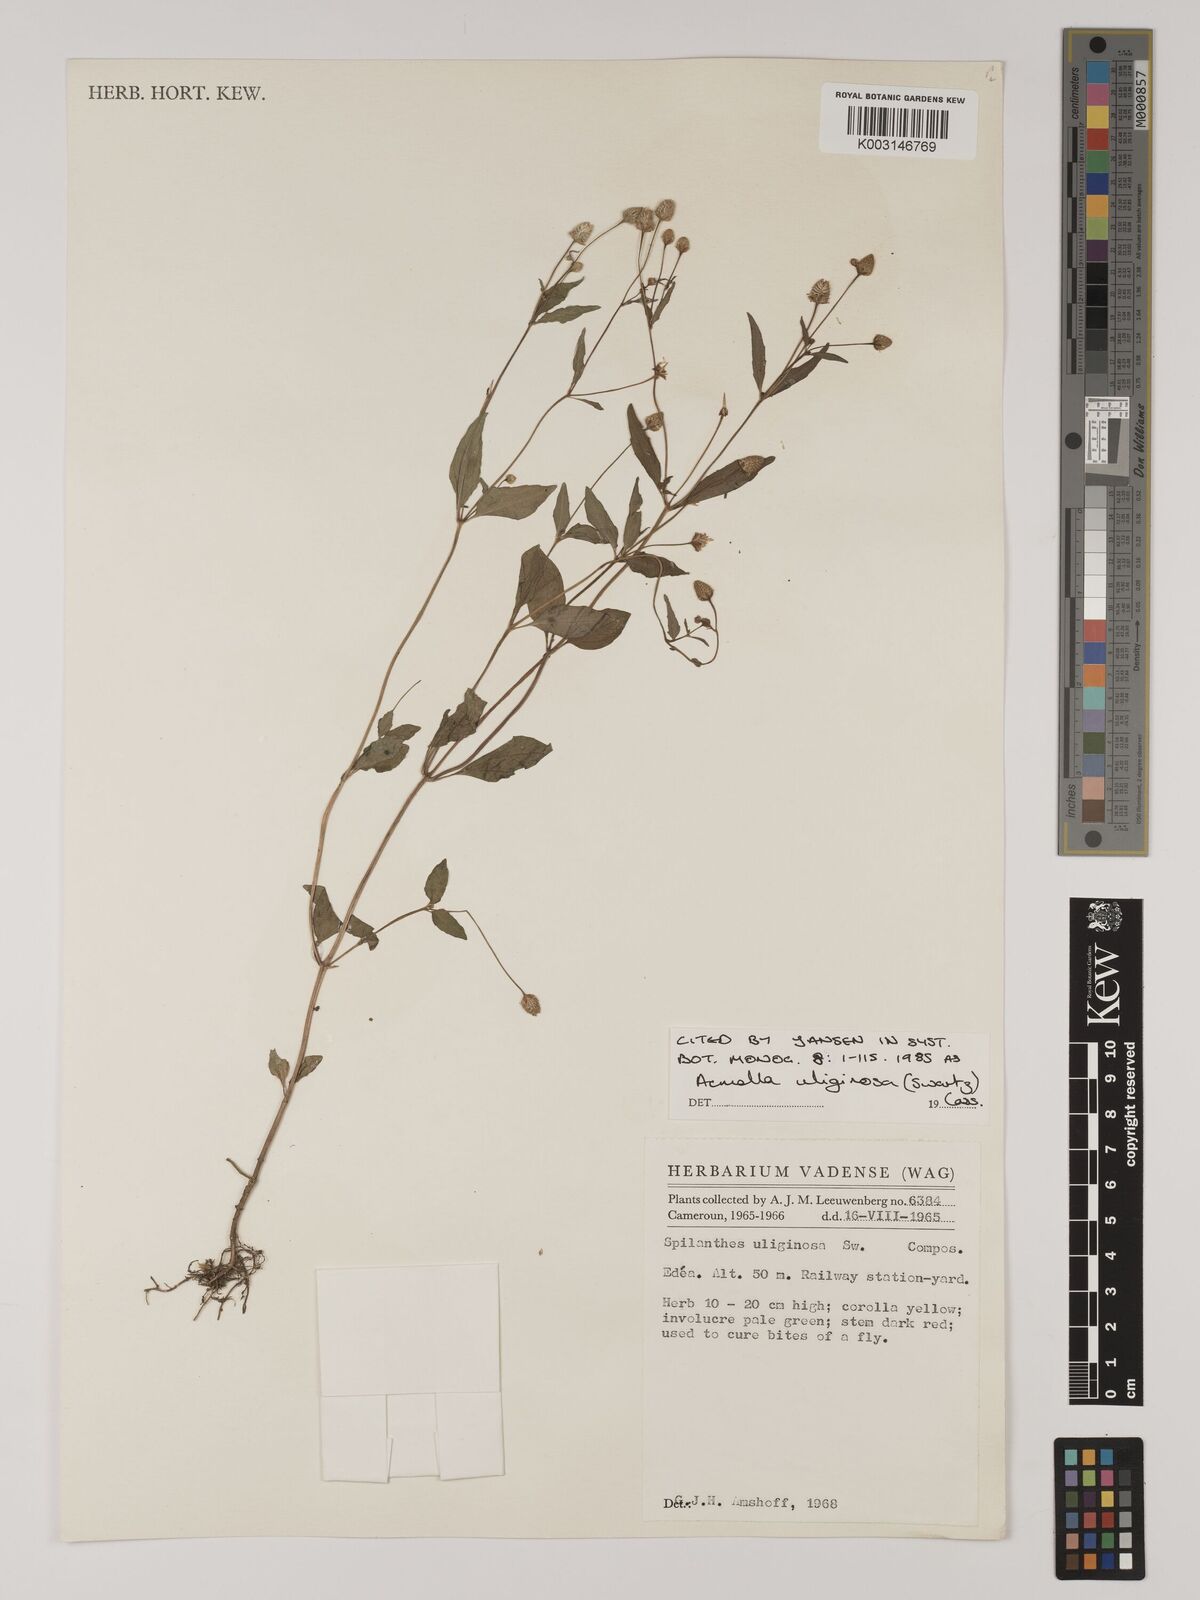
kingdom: Plantae
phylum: Tracheophyta
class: Magnoliopsida
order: Asterales
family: Asteraceae
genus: Acmella
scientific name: Acmella uliginosa
